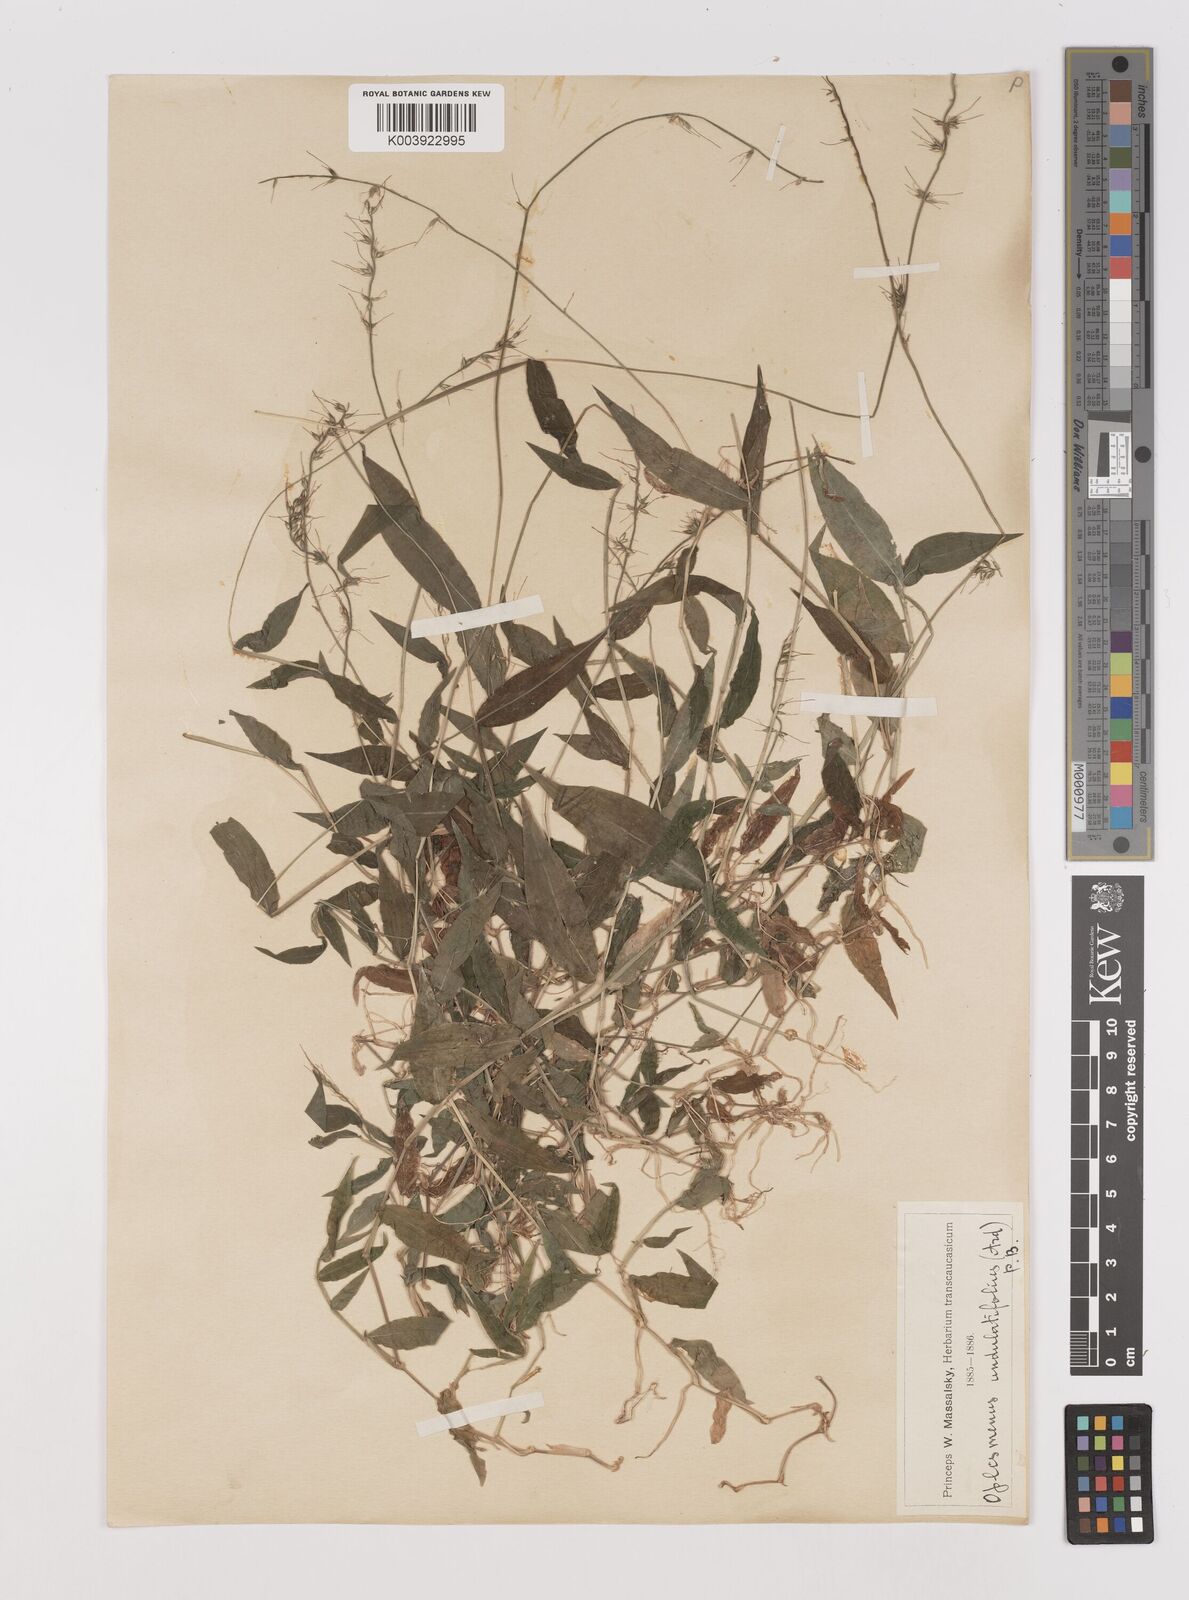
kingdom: Plantae
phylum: Tracheophyta
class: Liliopsida
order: Poales
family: Poaceae
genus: Oplismenus
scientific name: Oplismenus undulatifolius
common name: Wavyleaf basketgrass
